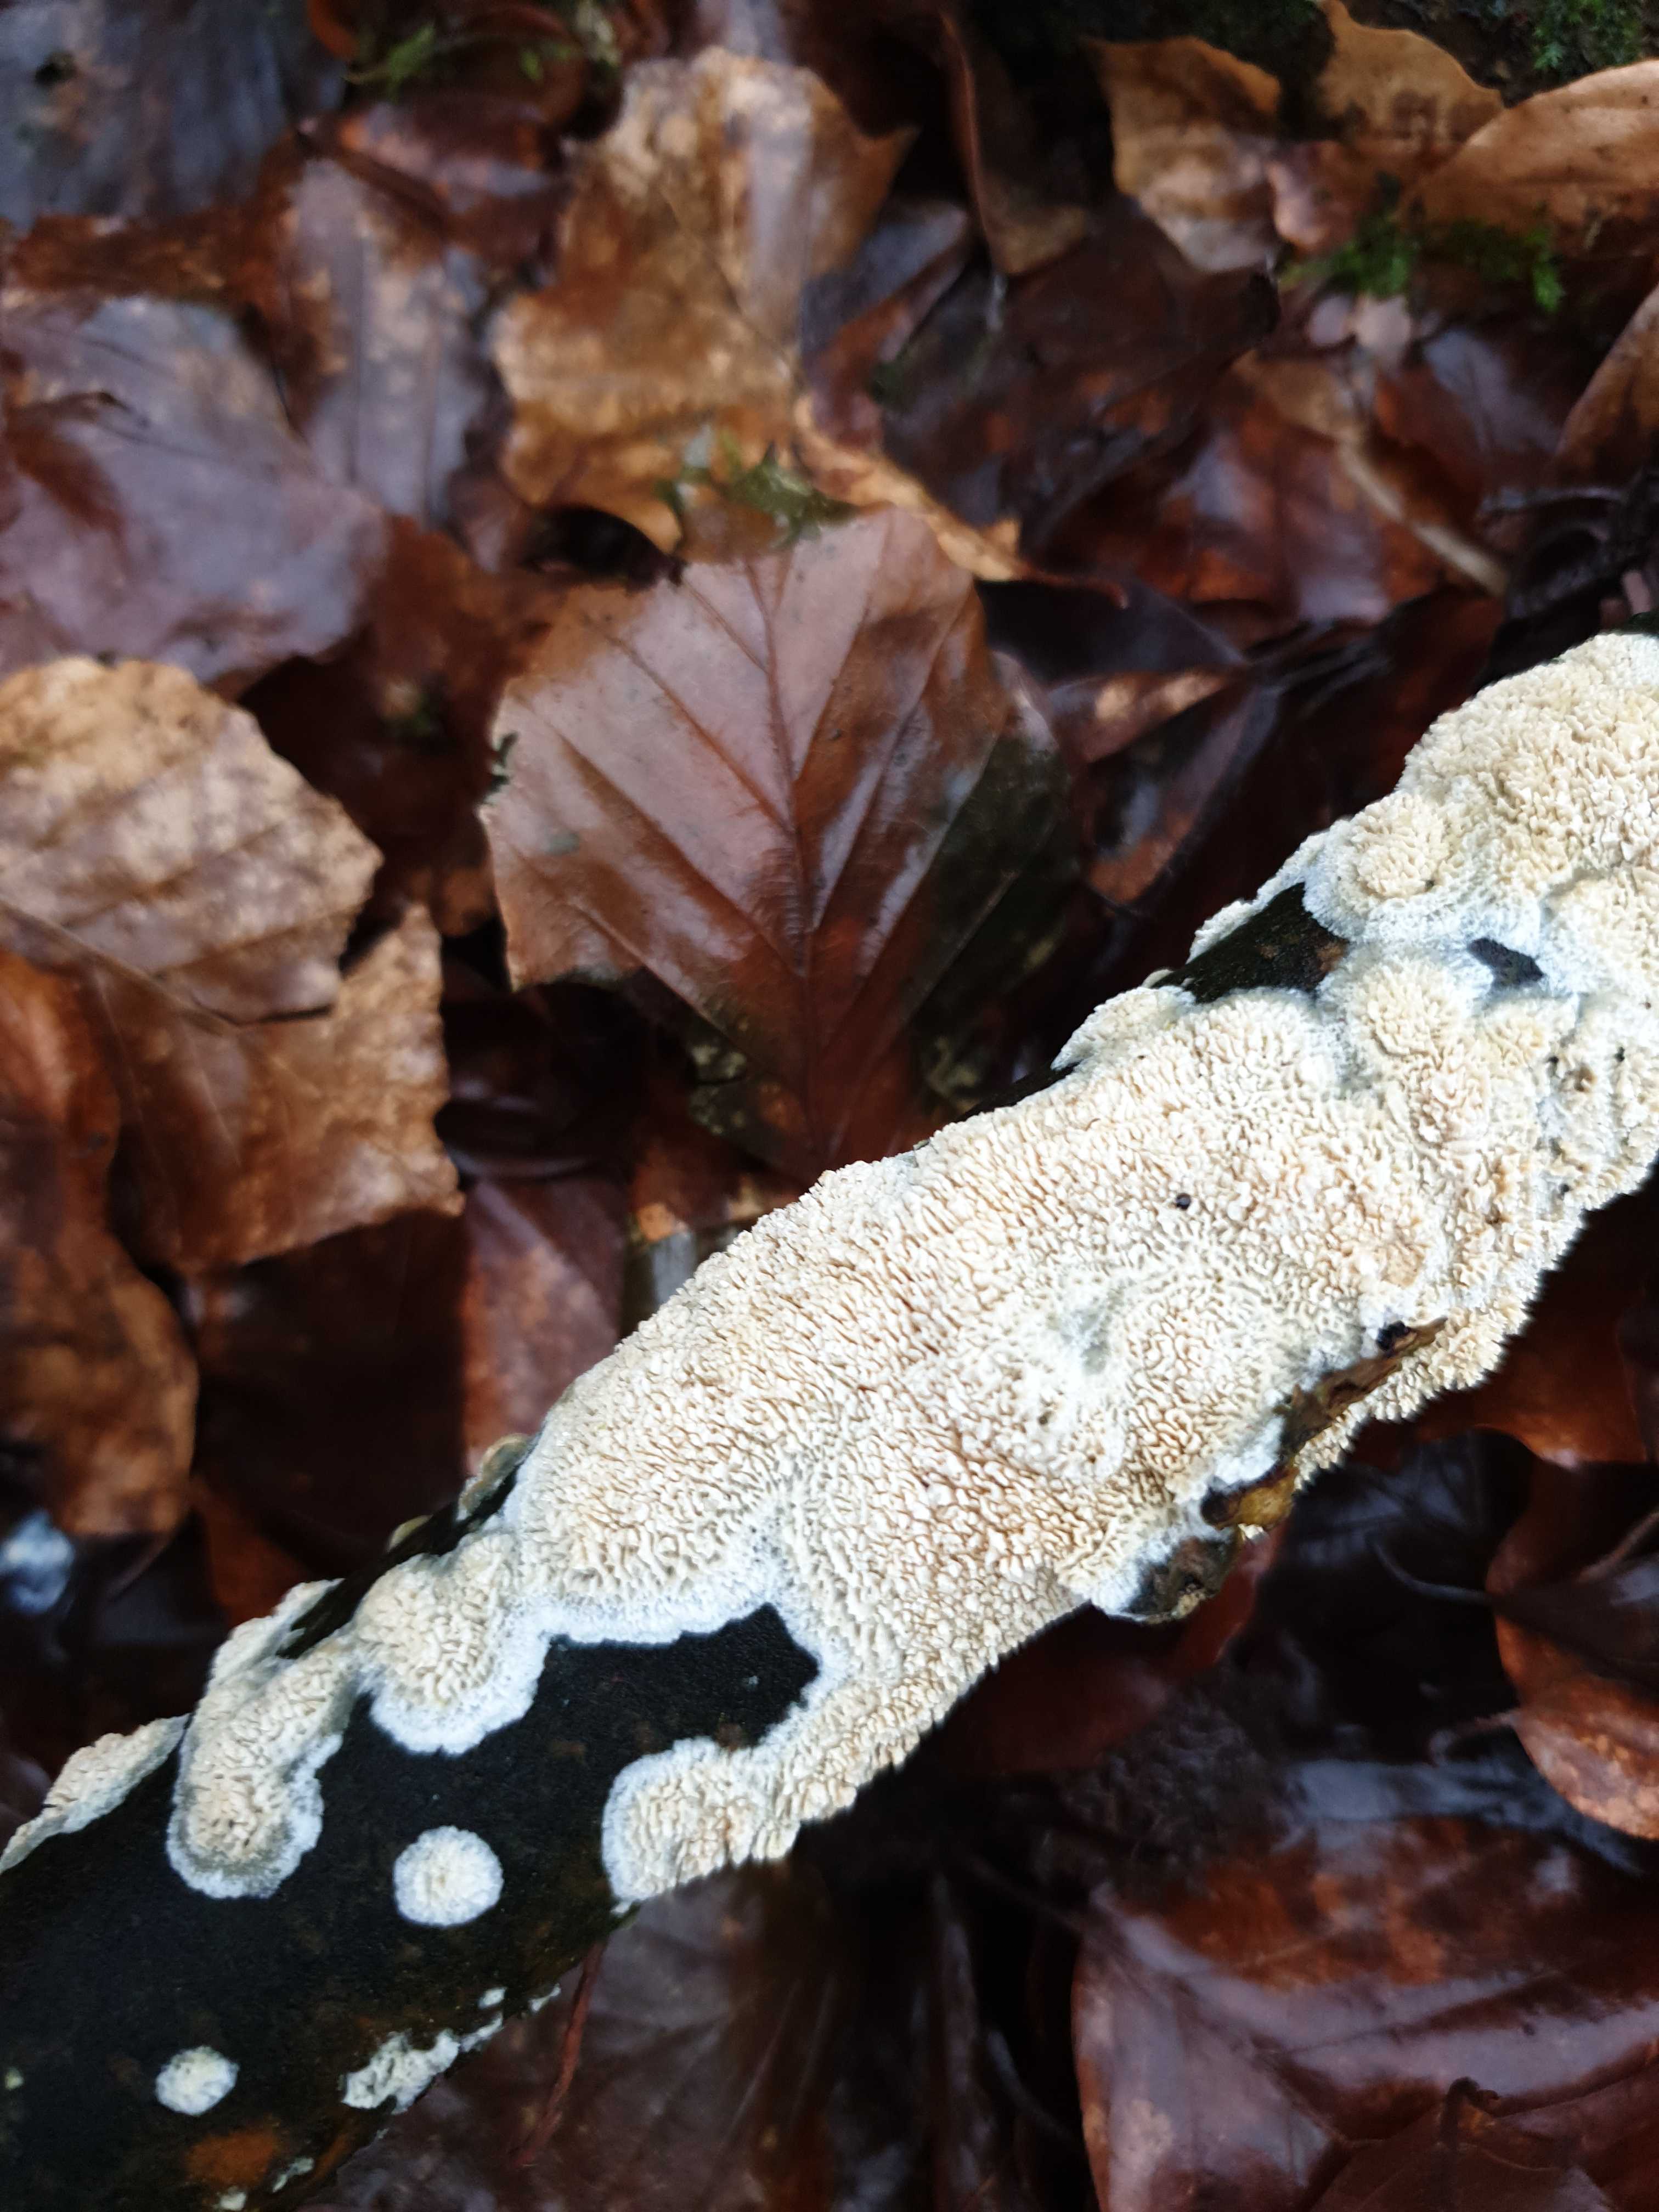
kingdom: Fungi
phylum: Basidiomycota
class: Agaricomycetes
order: Hymenochaetales
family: Schizoporaceae
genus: Schizopora
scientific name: Schizopora paradoxa
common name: hvid tandsvamp
